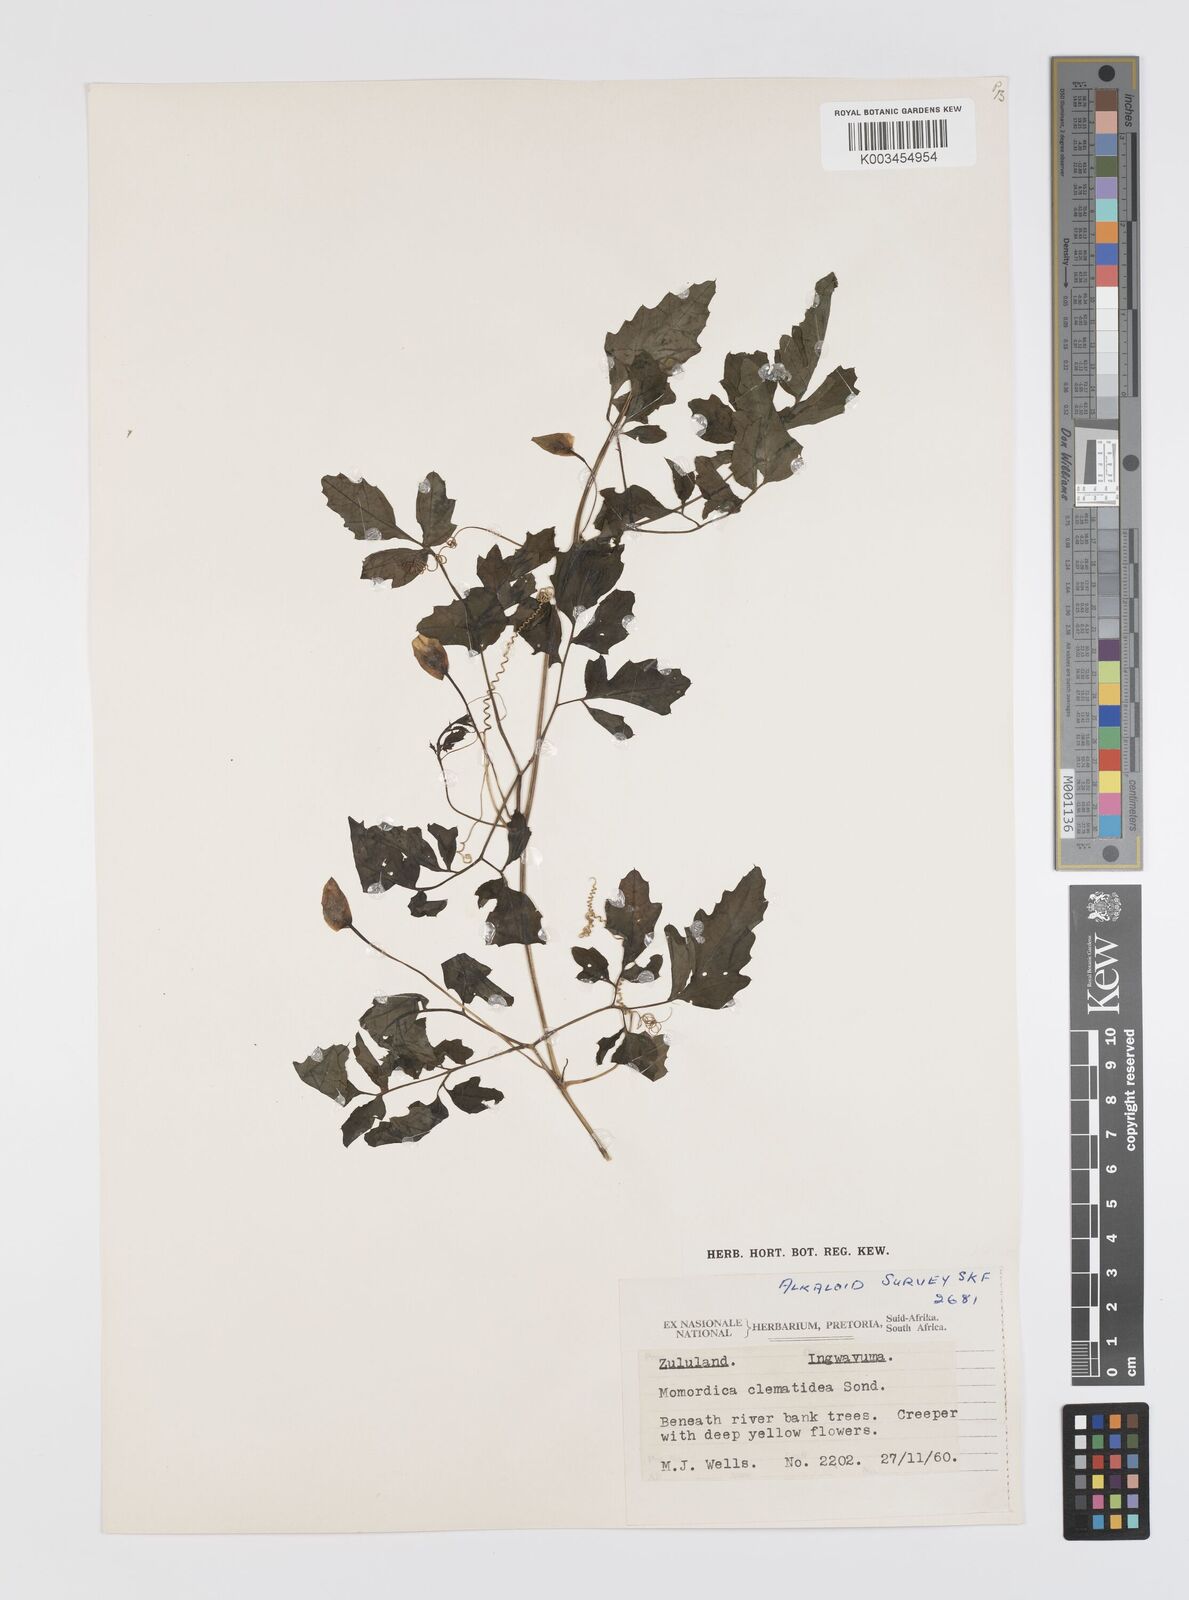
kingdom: Plantae
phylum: Tracheophyta
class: Magnoliopsida
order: Cucurbitales
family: Cucurbitaceae
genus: Momordica
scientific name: Momordica cardiospermoides
